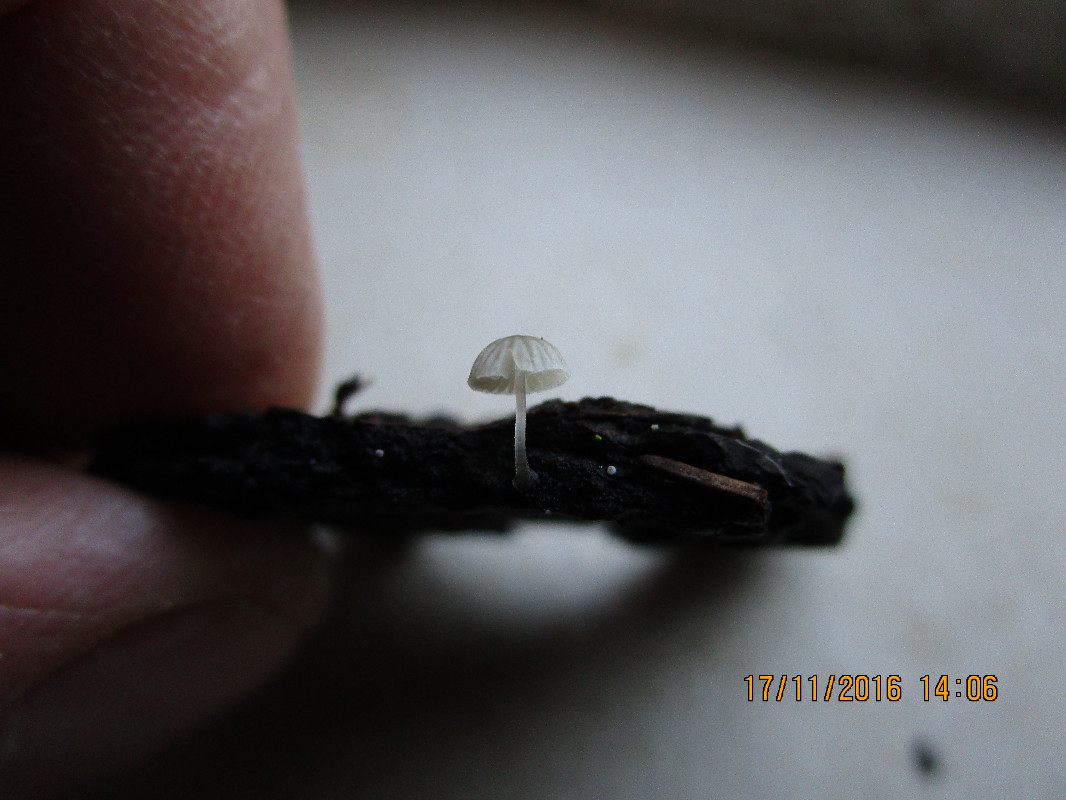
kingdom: Fungi
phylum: Basidiomycota
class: Agaricomycetes
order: Agaricales
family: Mycenaceae
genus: Mycena
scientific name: Mycena tenerrima
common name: pudret huesvamp
